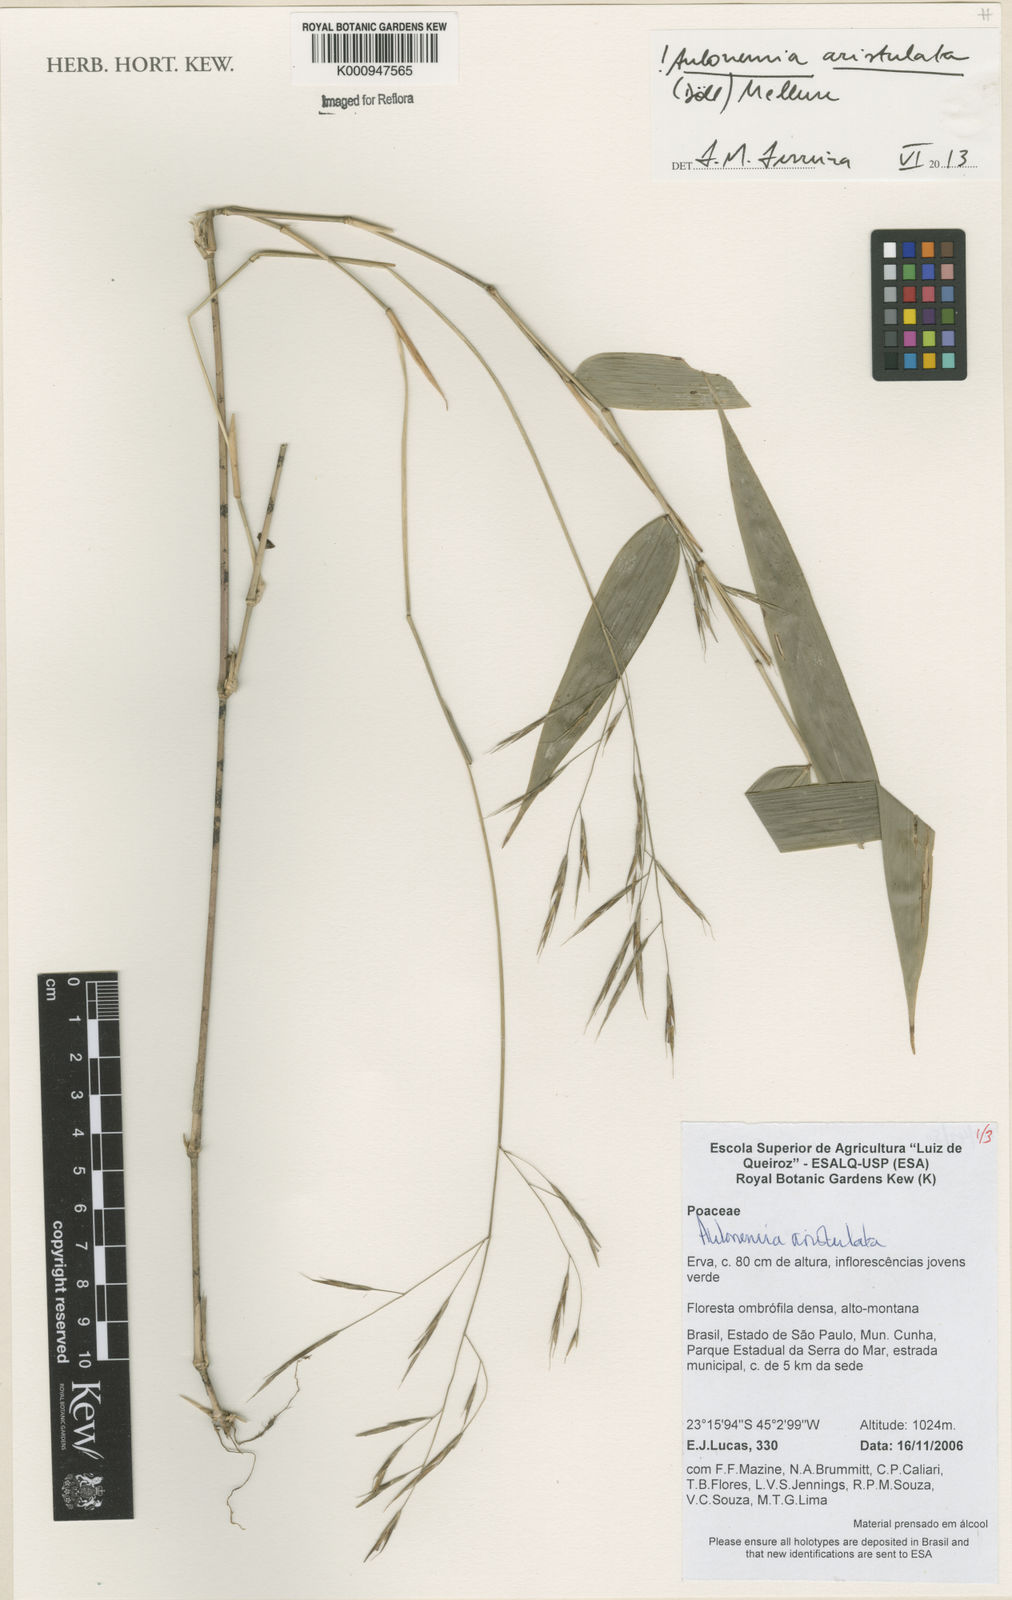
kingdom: Plantae
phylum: Tracheophyta
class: Liliopsida
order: Poales
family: Poaceae
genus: Aulonemia
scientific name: Aulonemia
